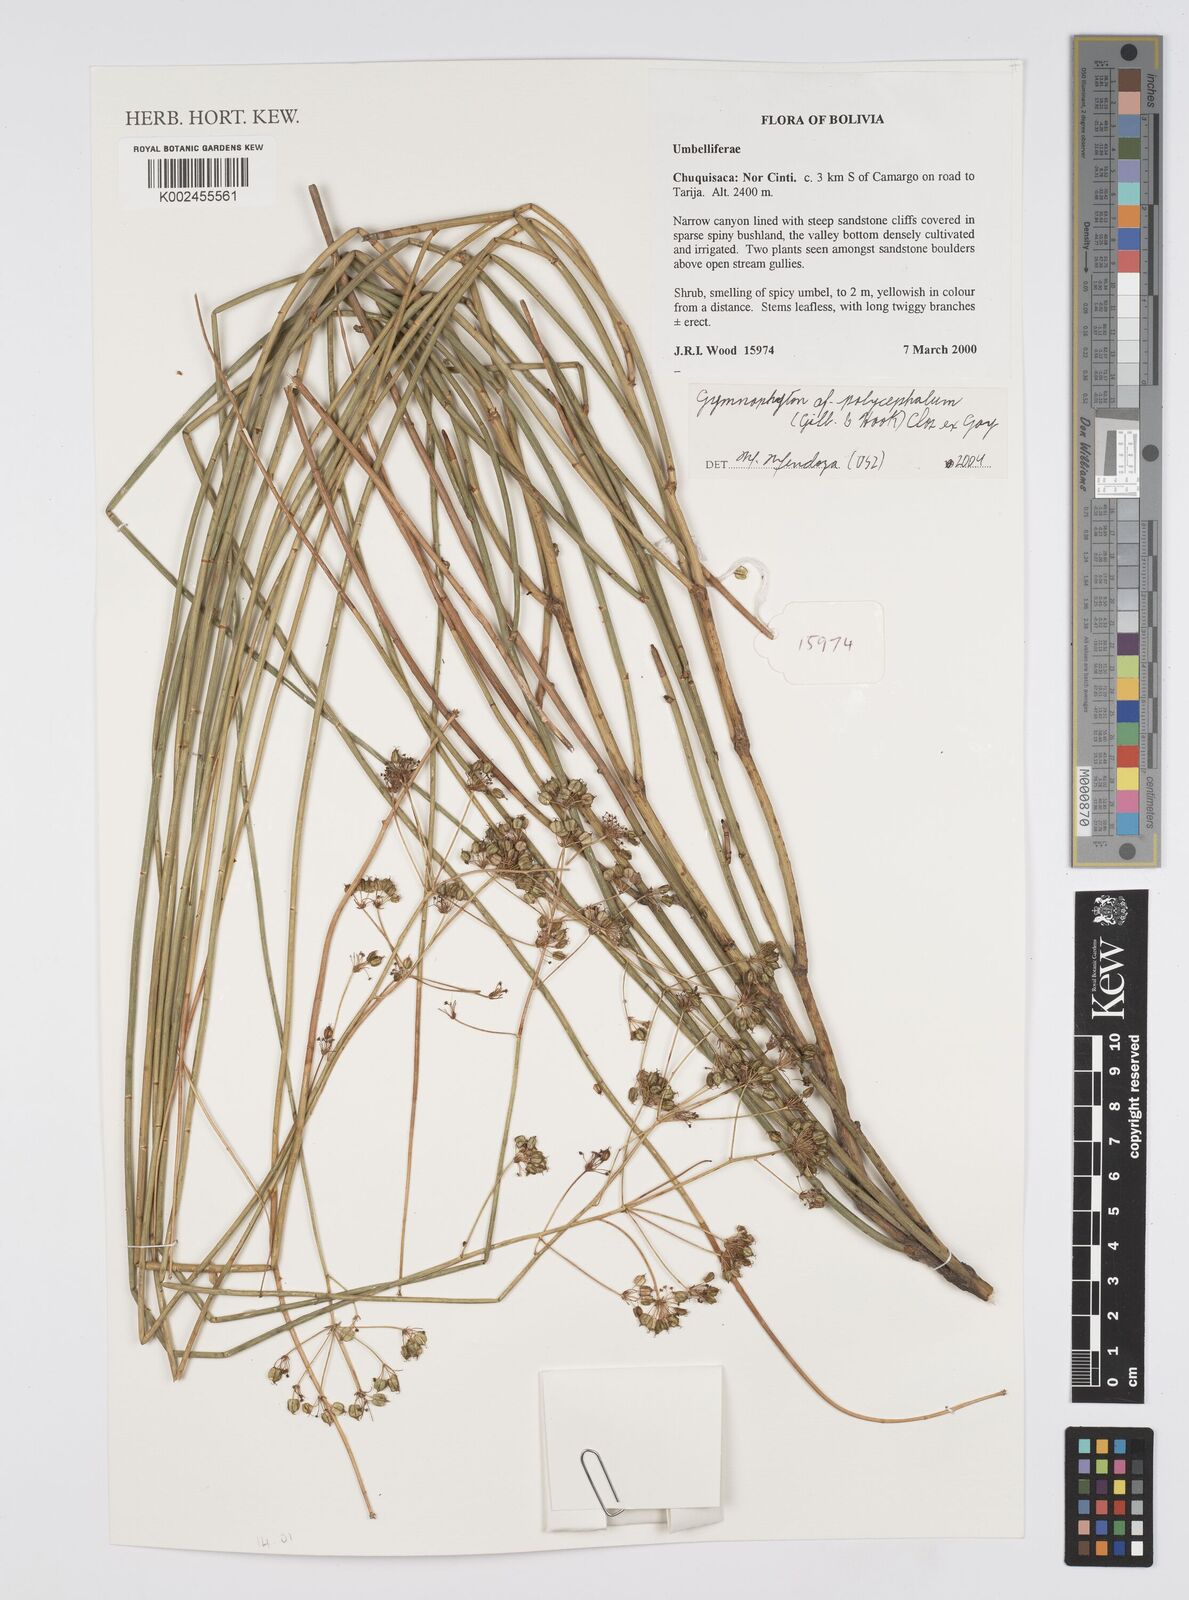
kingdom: Plantae
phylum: Tracheophyta
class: Magnoliopsida
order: Apiales
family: Apiaceae
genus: Gymnophyton
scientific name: Gymnophyton polycephalum
